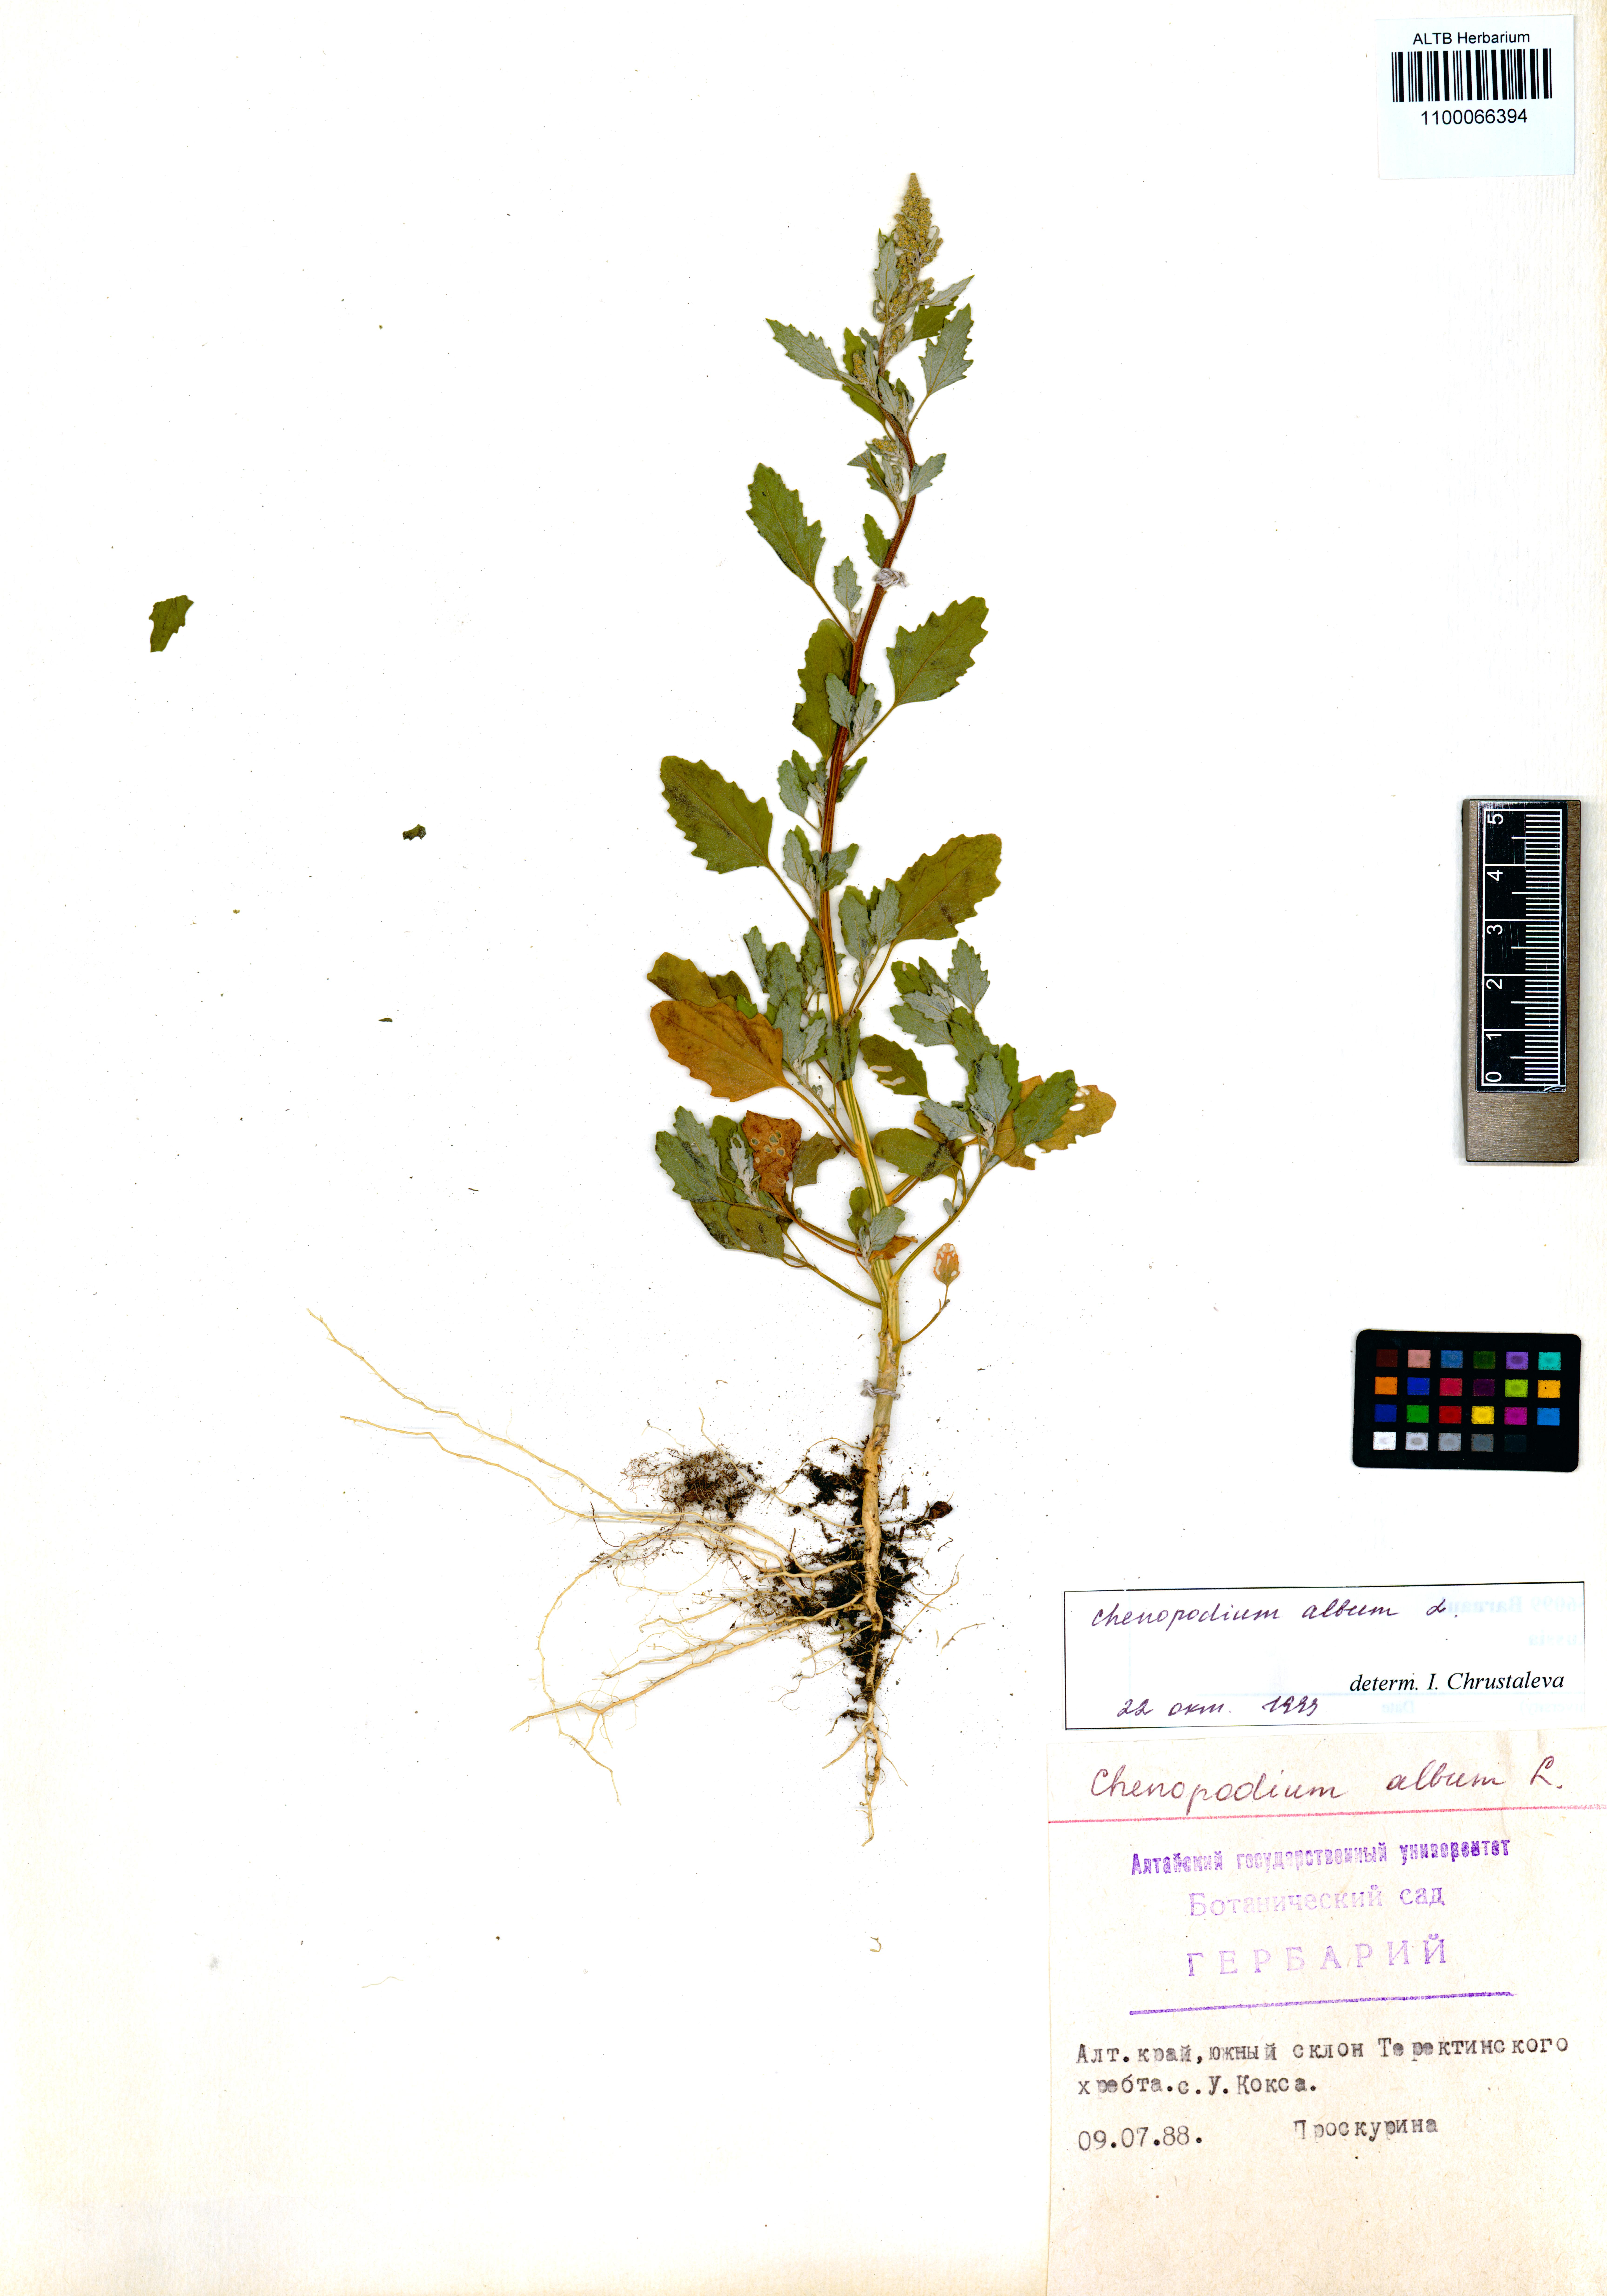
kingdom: Plantae
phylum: Tracheophyta
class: Magnoliopsida
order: Caryophyllales
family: Amaranthaceae
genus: Chenopodium
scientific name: Chenopodium album
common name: Fat-hen
